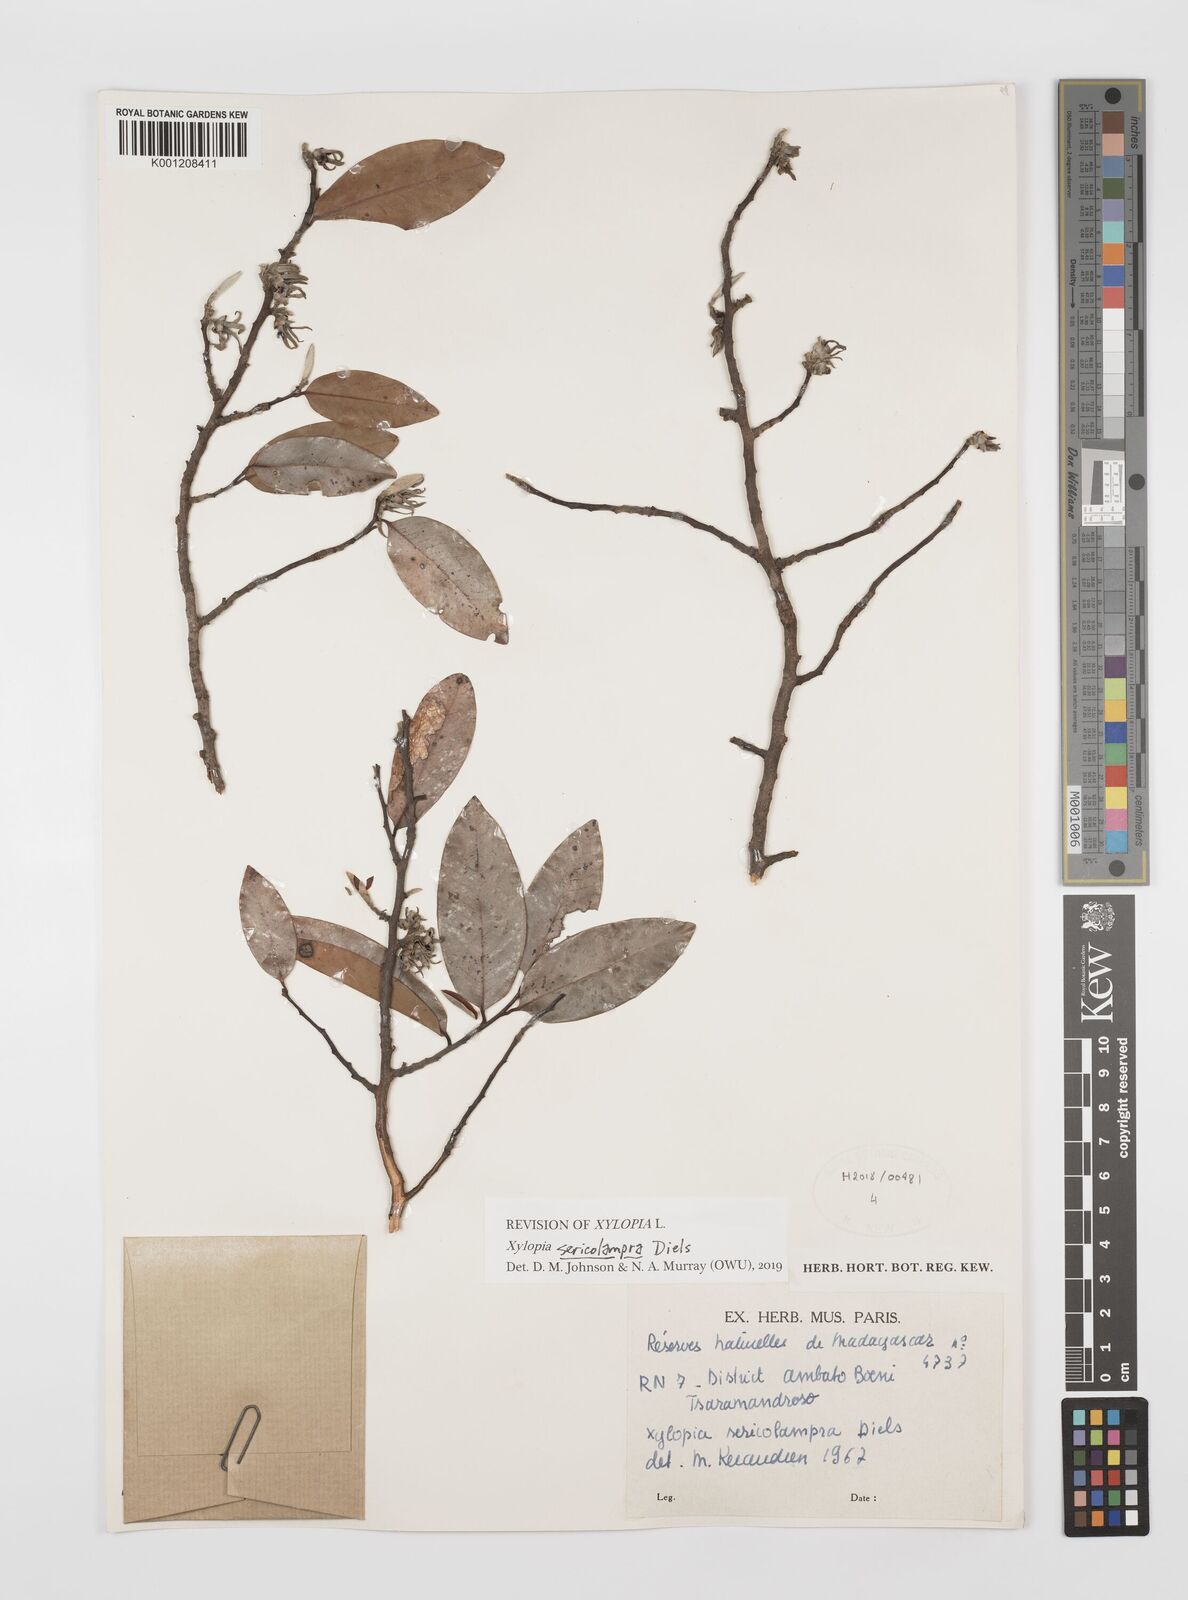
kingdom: Plantae
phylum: Tracheophyta
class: Magnoliopsida
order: Magnoliales
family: Annonaceae
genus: Xylopia
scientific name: Xylopia sericolampra
